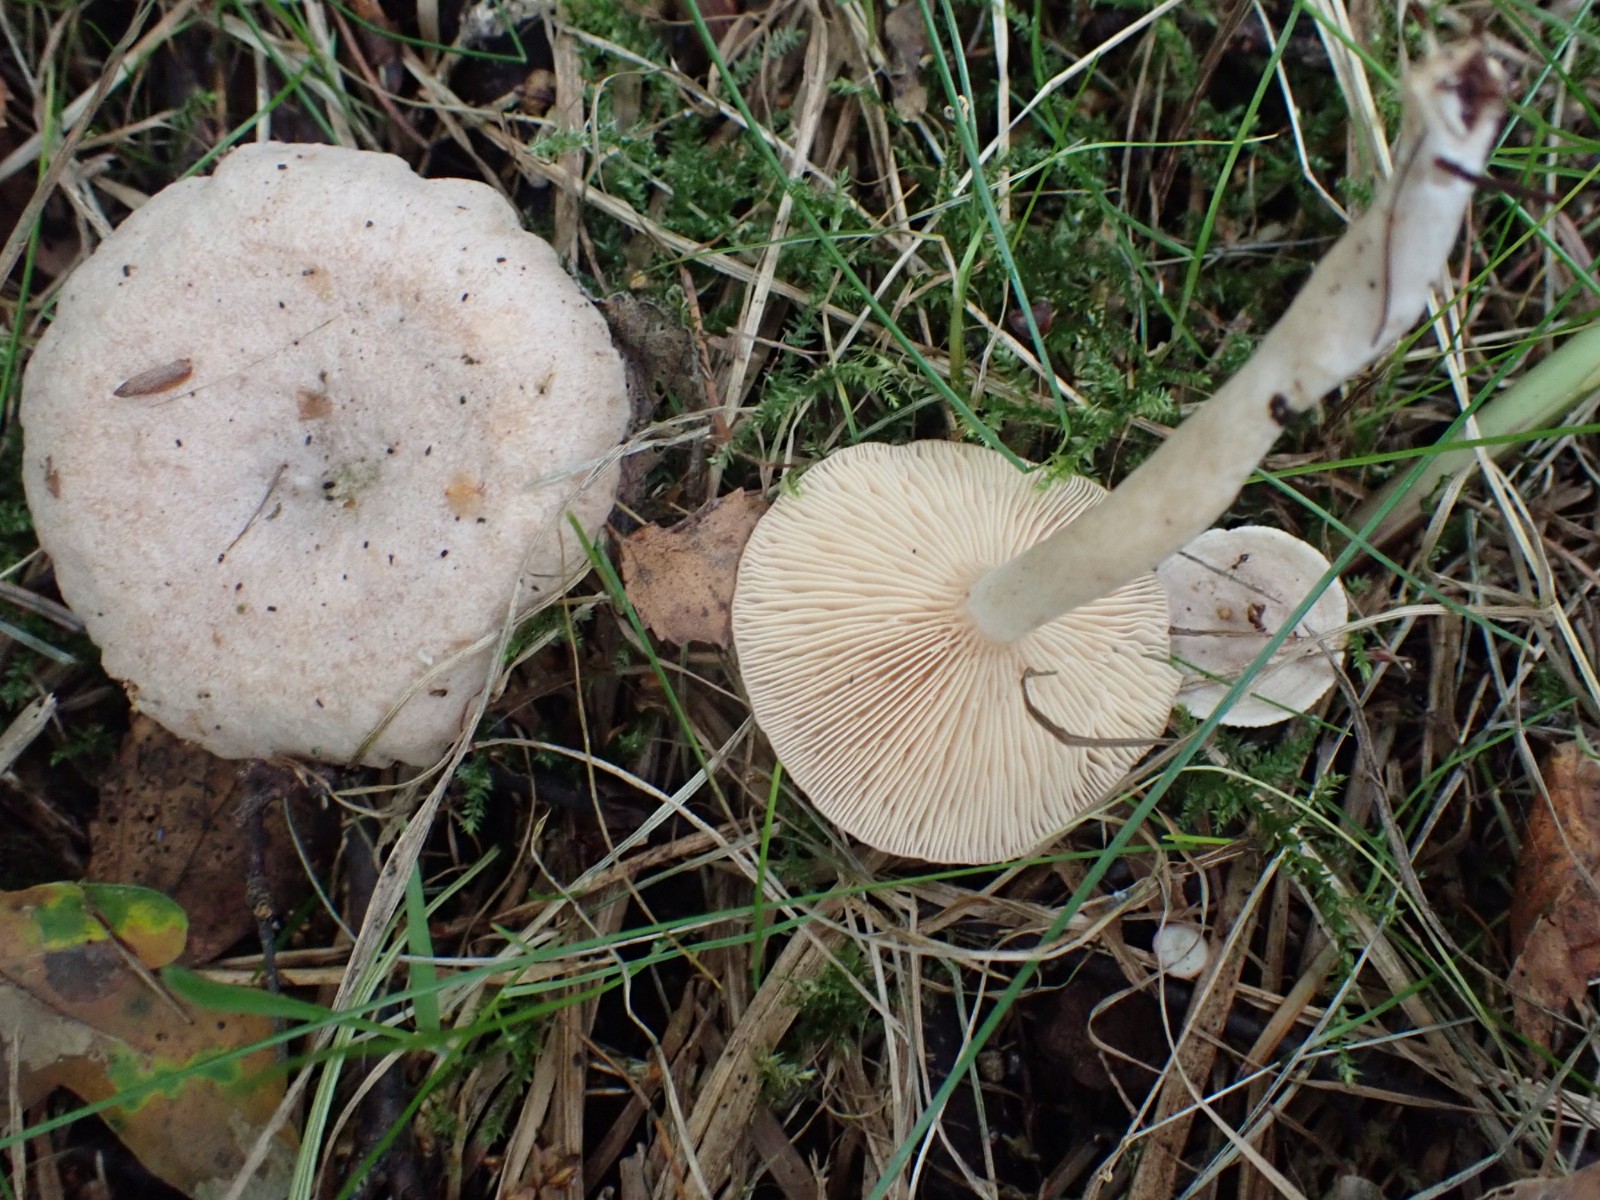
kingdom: Fungi
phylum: Basidiomycota
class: Agaricomycetes
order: Russulales
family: Russulaceae
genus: Lactarius
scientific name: Lactarius glyciosmus
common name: kokos-mælkehat
